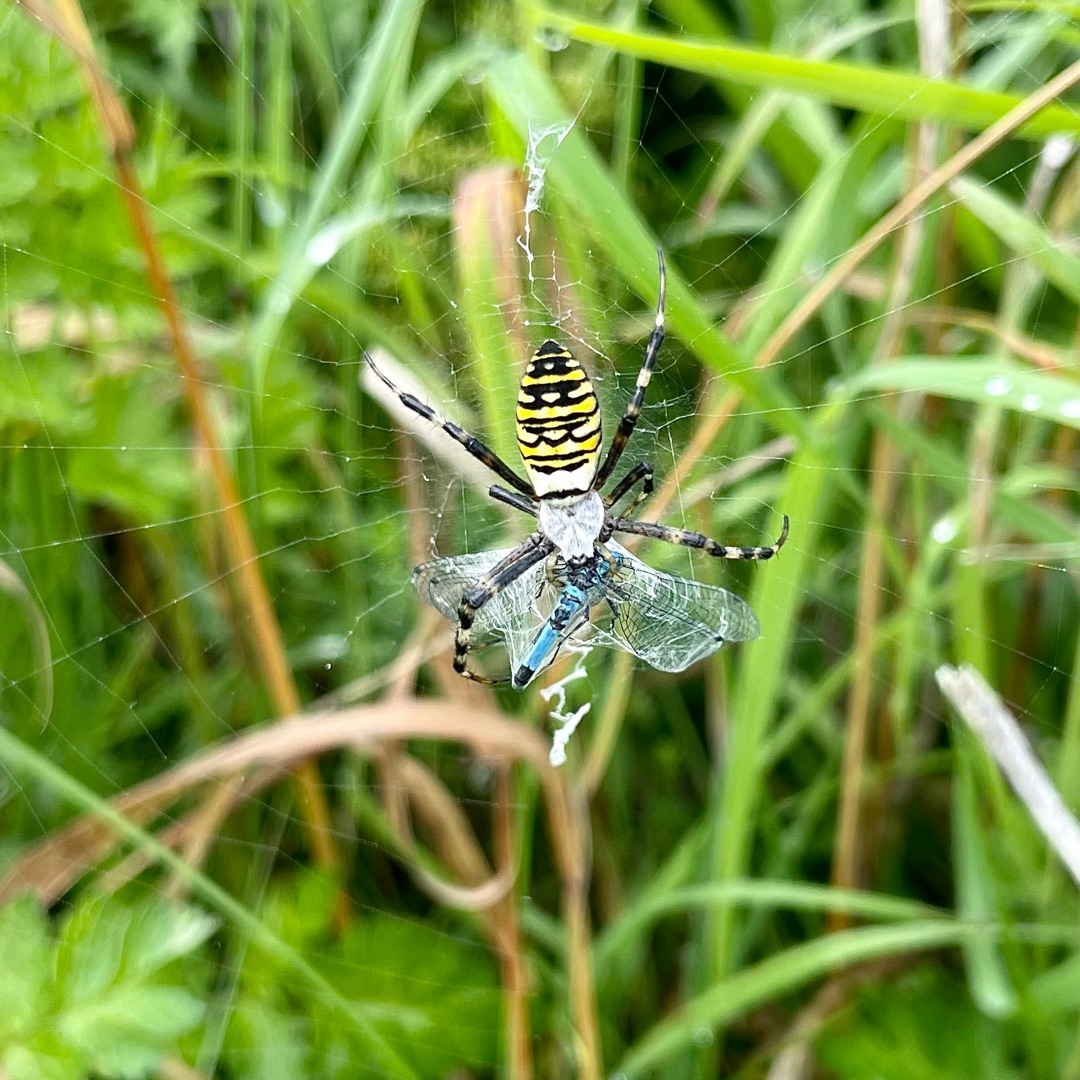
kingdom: Animalia
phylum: Arthropoda
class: Arachnida
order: Araneae
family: Araneidae
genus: Argiope
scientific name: Argiope bruennichi
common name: Hvepseedderkop
